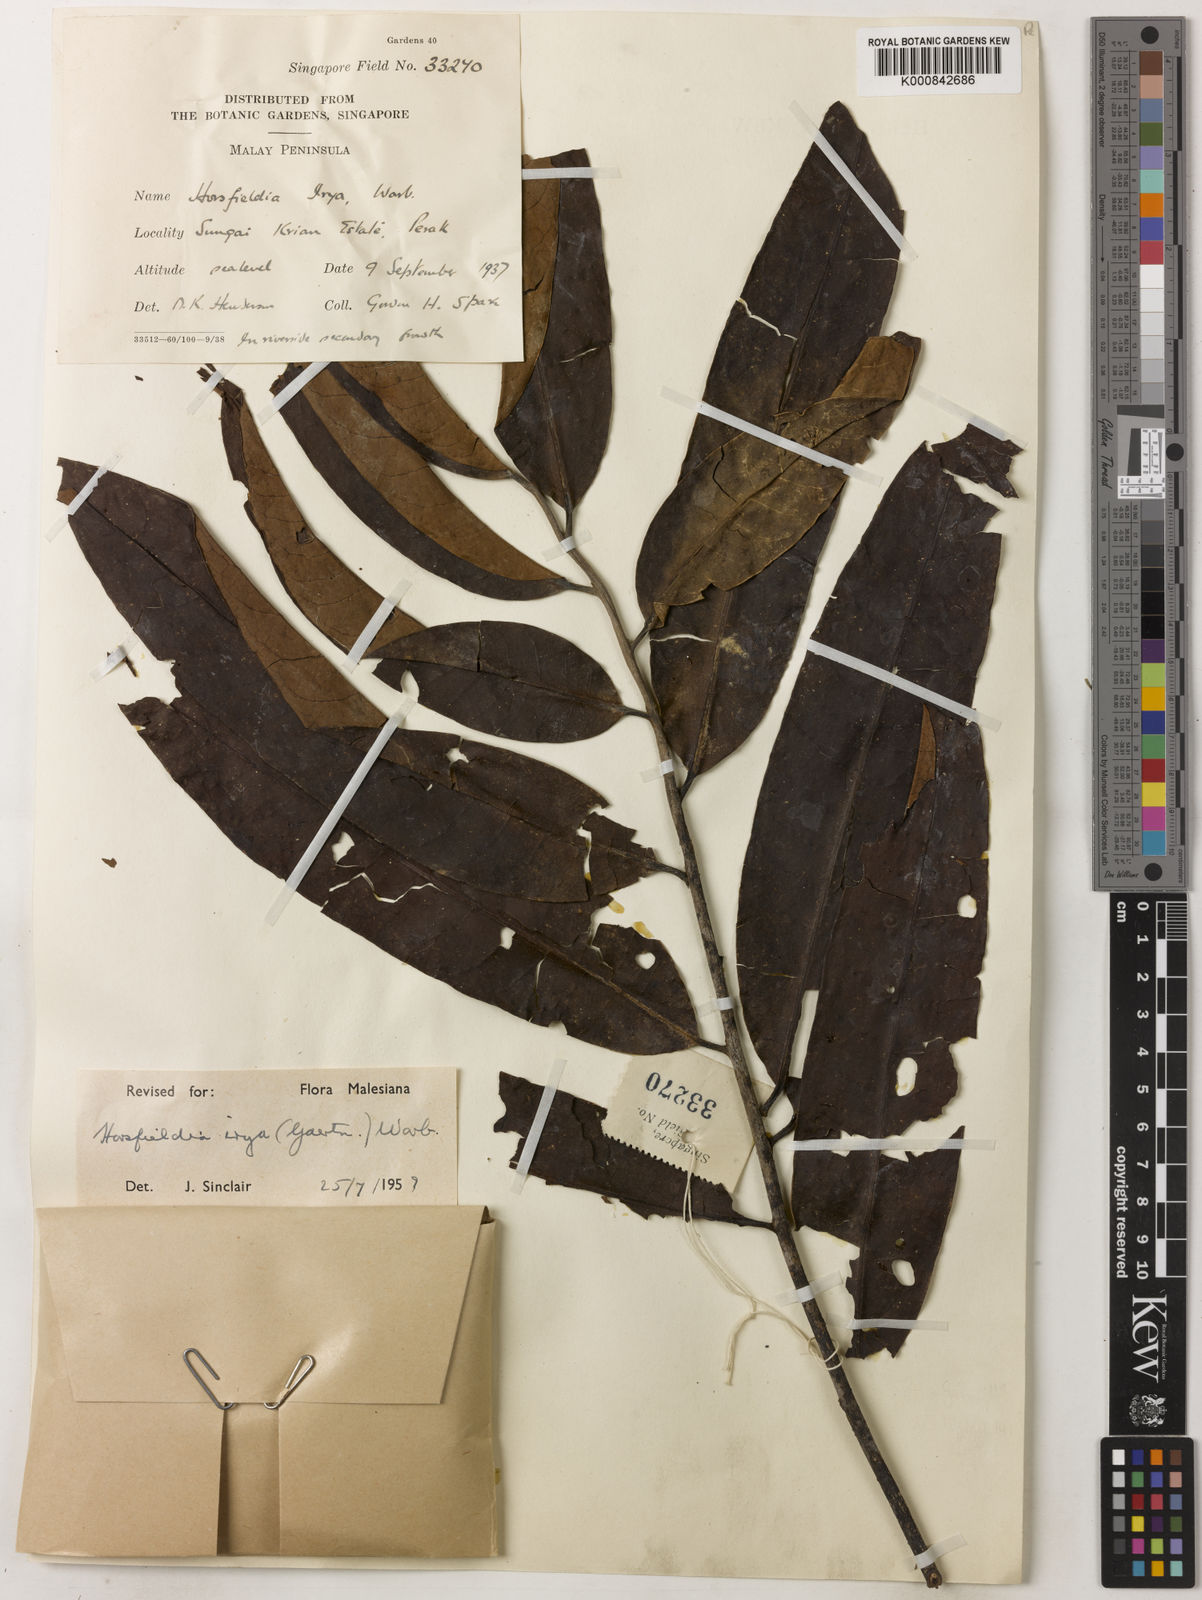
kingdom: Plantae
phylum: Tracheophyta
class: Magnoliopsida
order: Magnoliales
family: Myristicaceae
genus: Horsfieldia
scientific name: Horsfieldia irya
